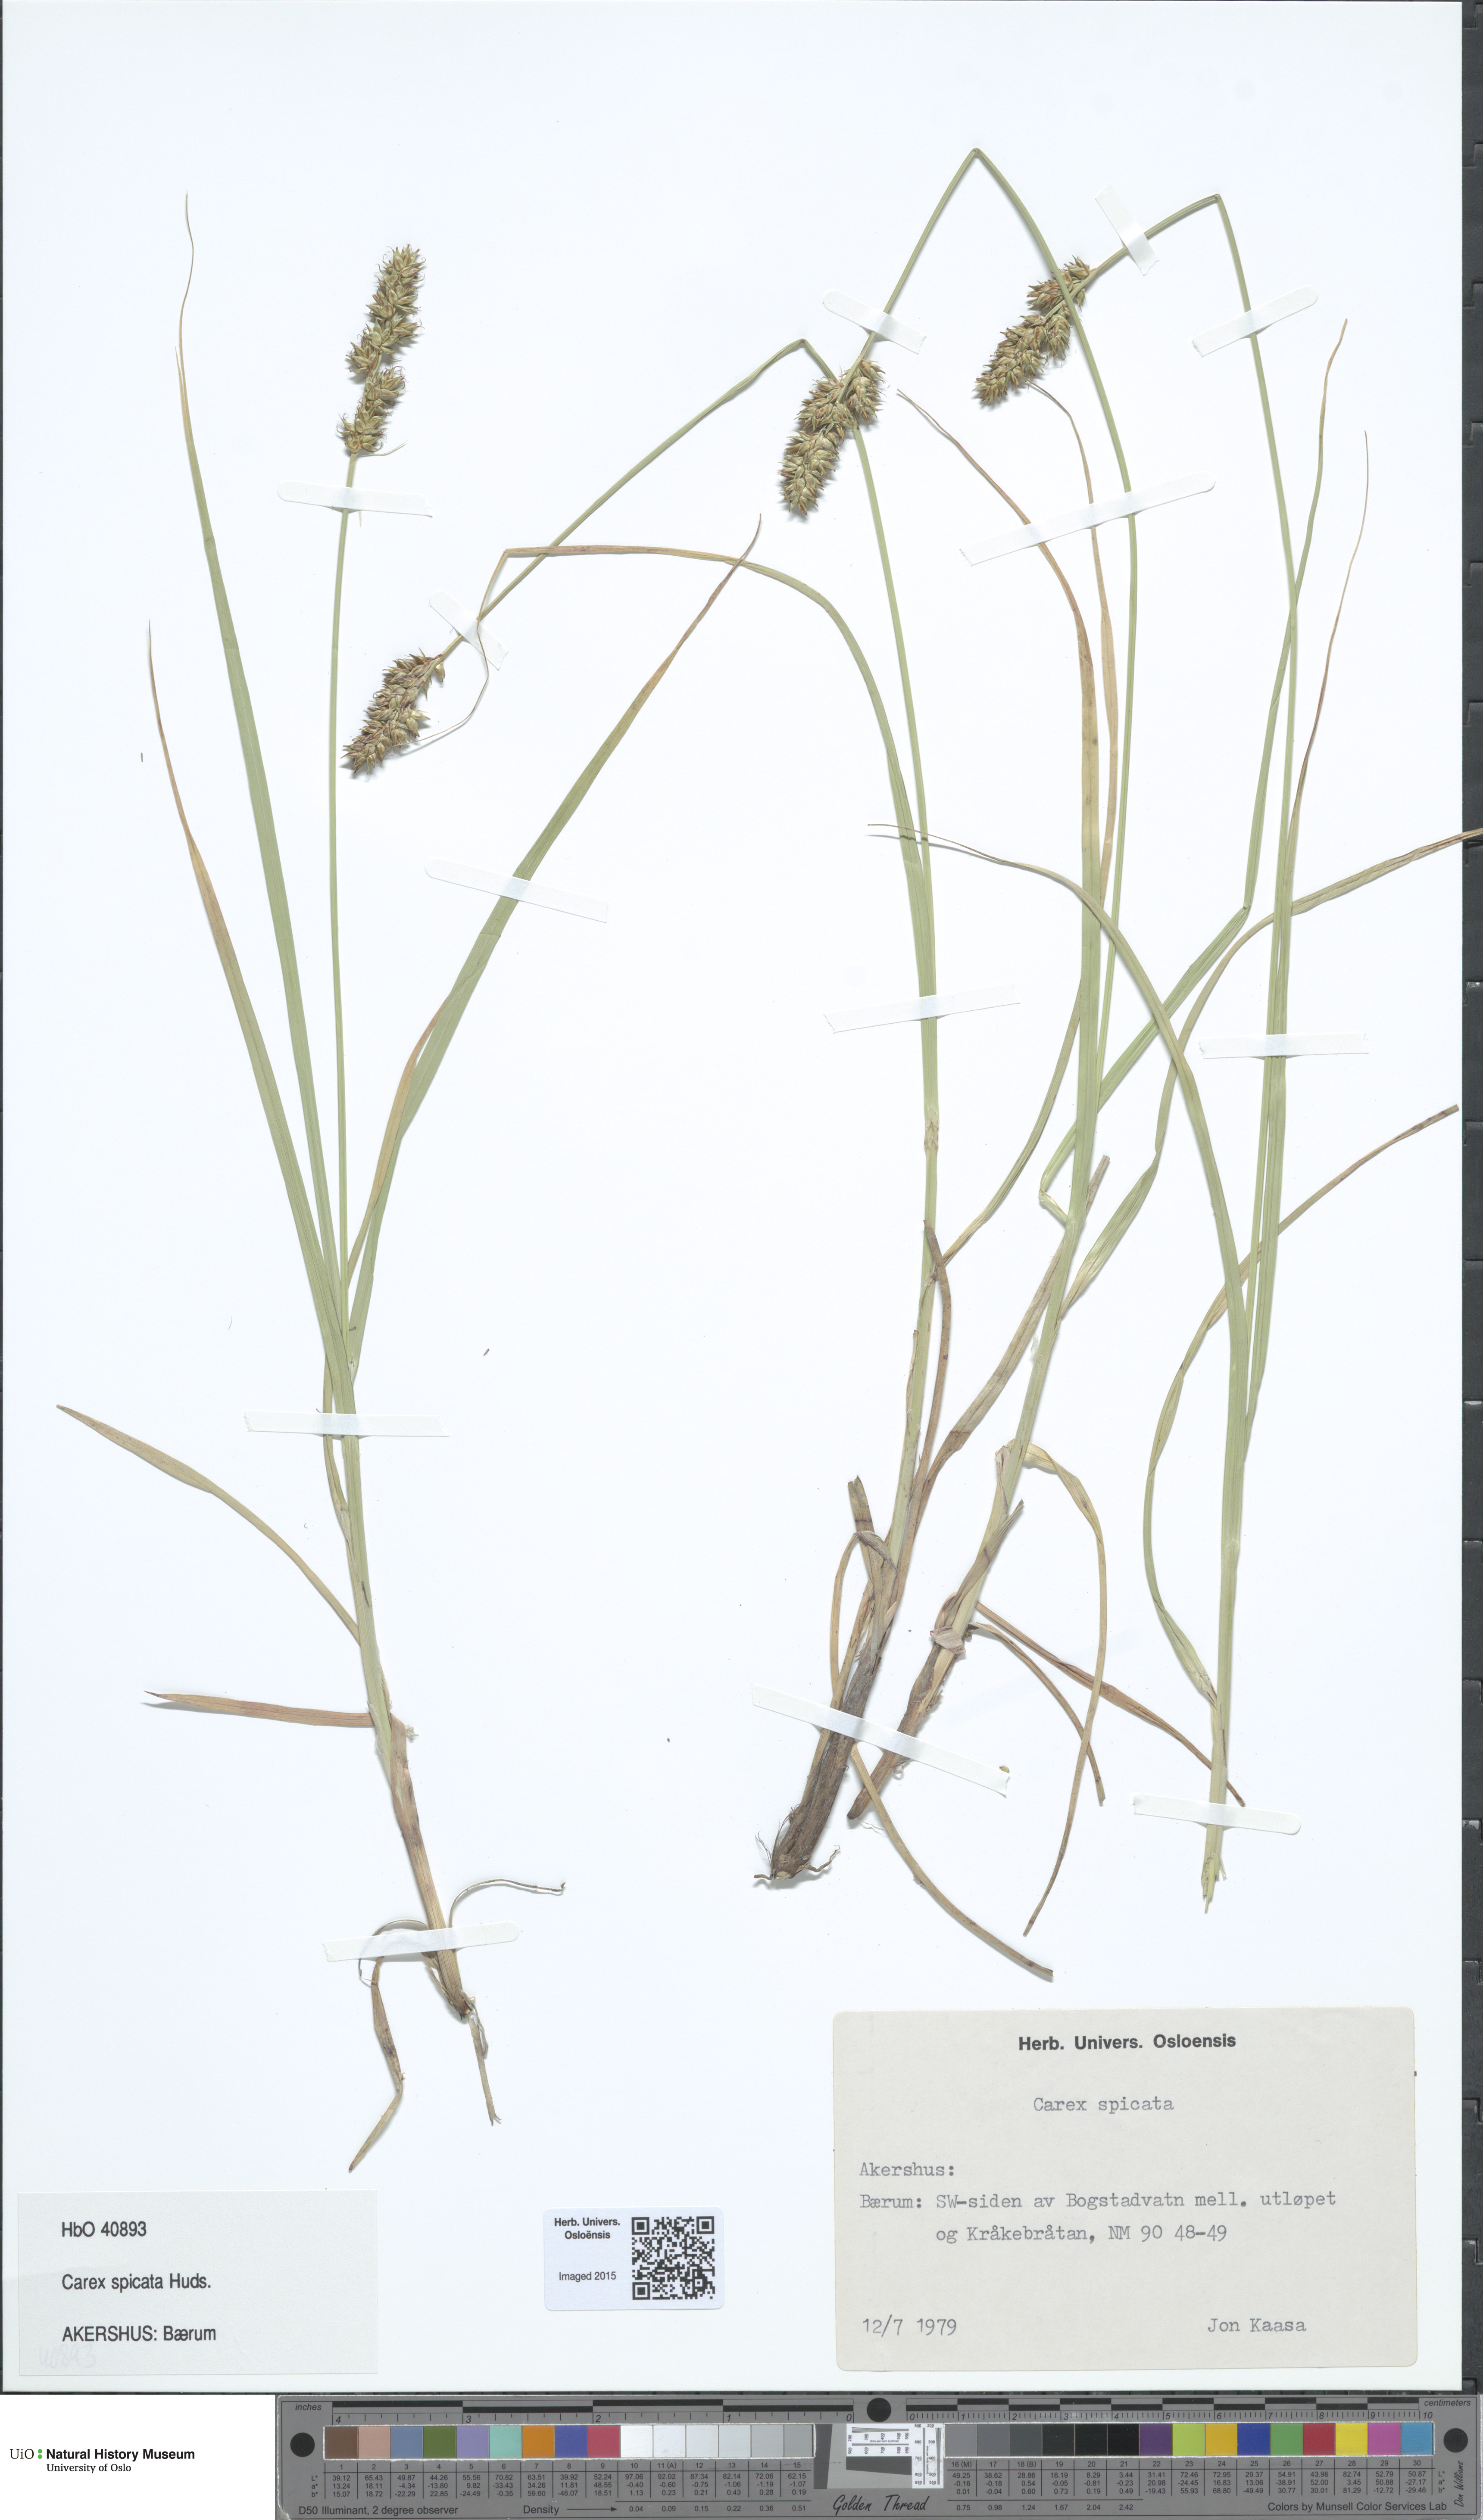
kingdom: Plantae
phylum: Tracheophyta
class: Liliopsida
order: Poales
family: Cyperaceae
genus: Carex
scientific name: Carex spicata
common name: Spiked sedge
